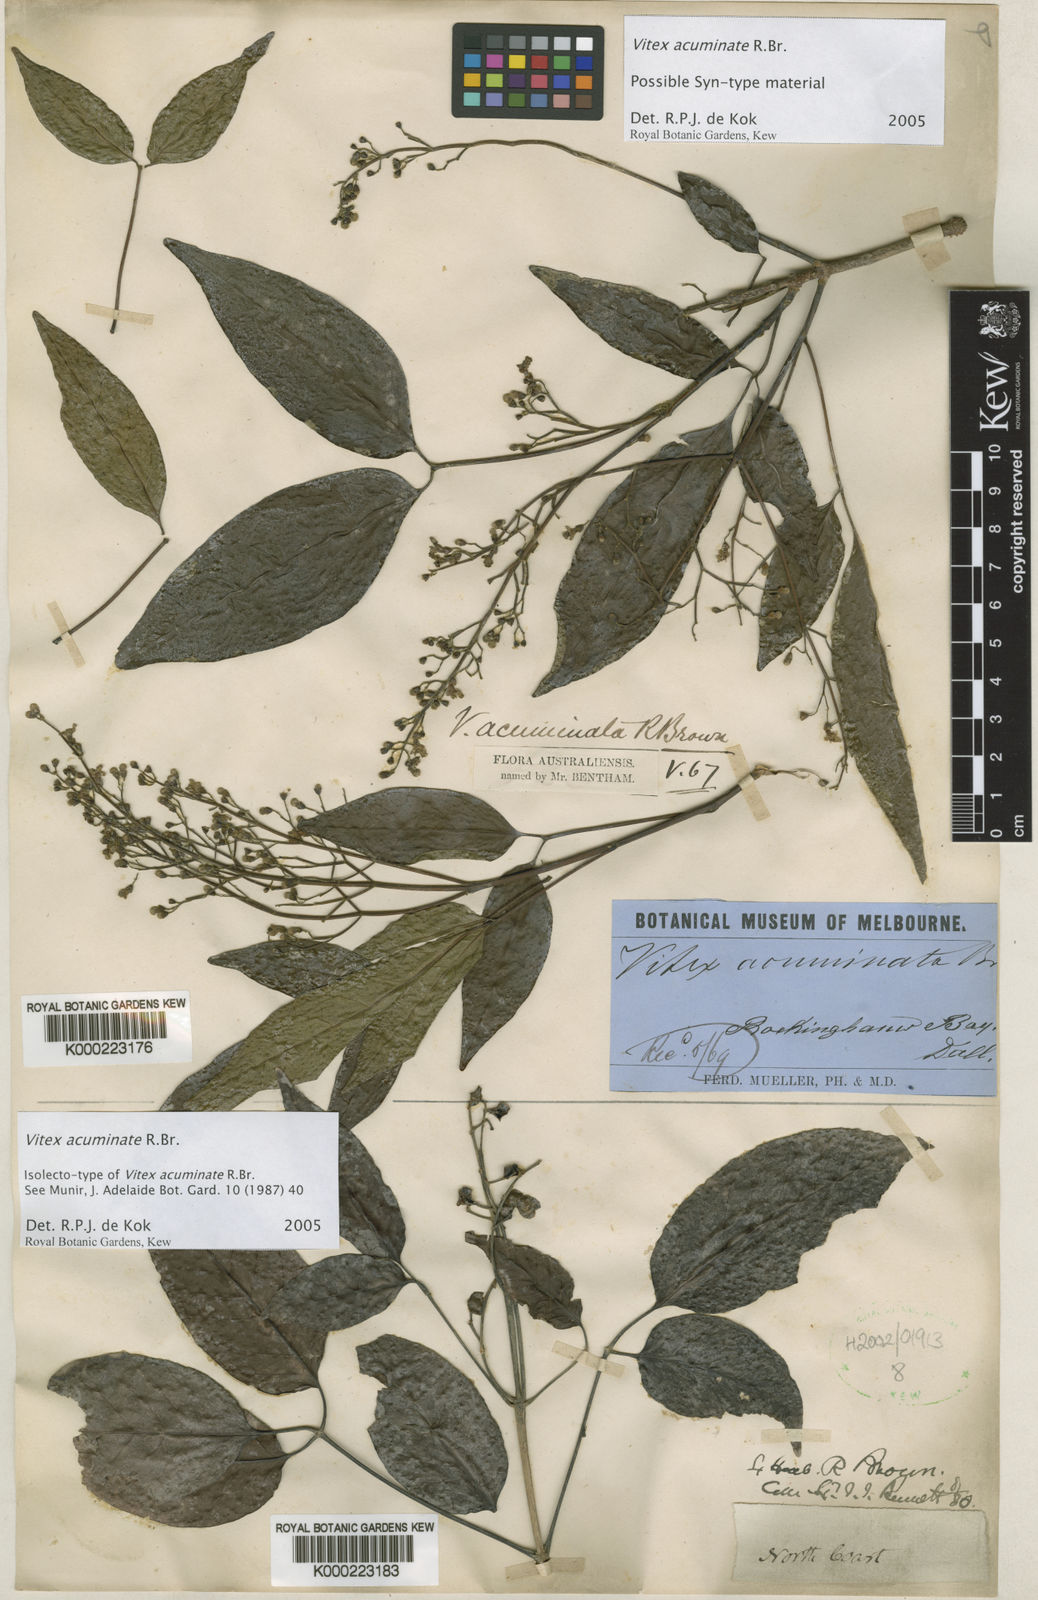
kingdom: Plantae
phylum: Tracheophyta
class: Magnoliopsida
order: Lamiales
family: Lamiaceae
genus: Vitex
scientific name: Vitex acuminata
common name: Black-plum
